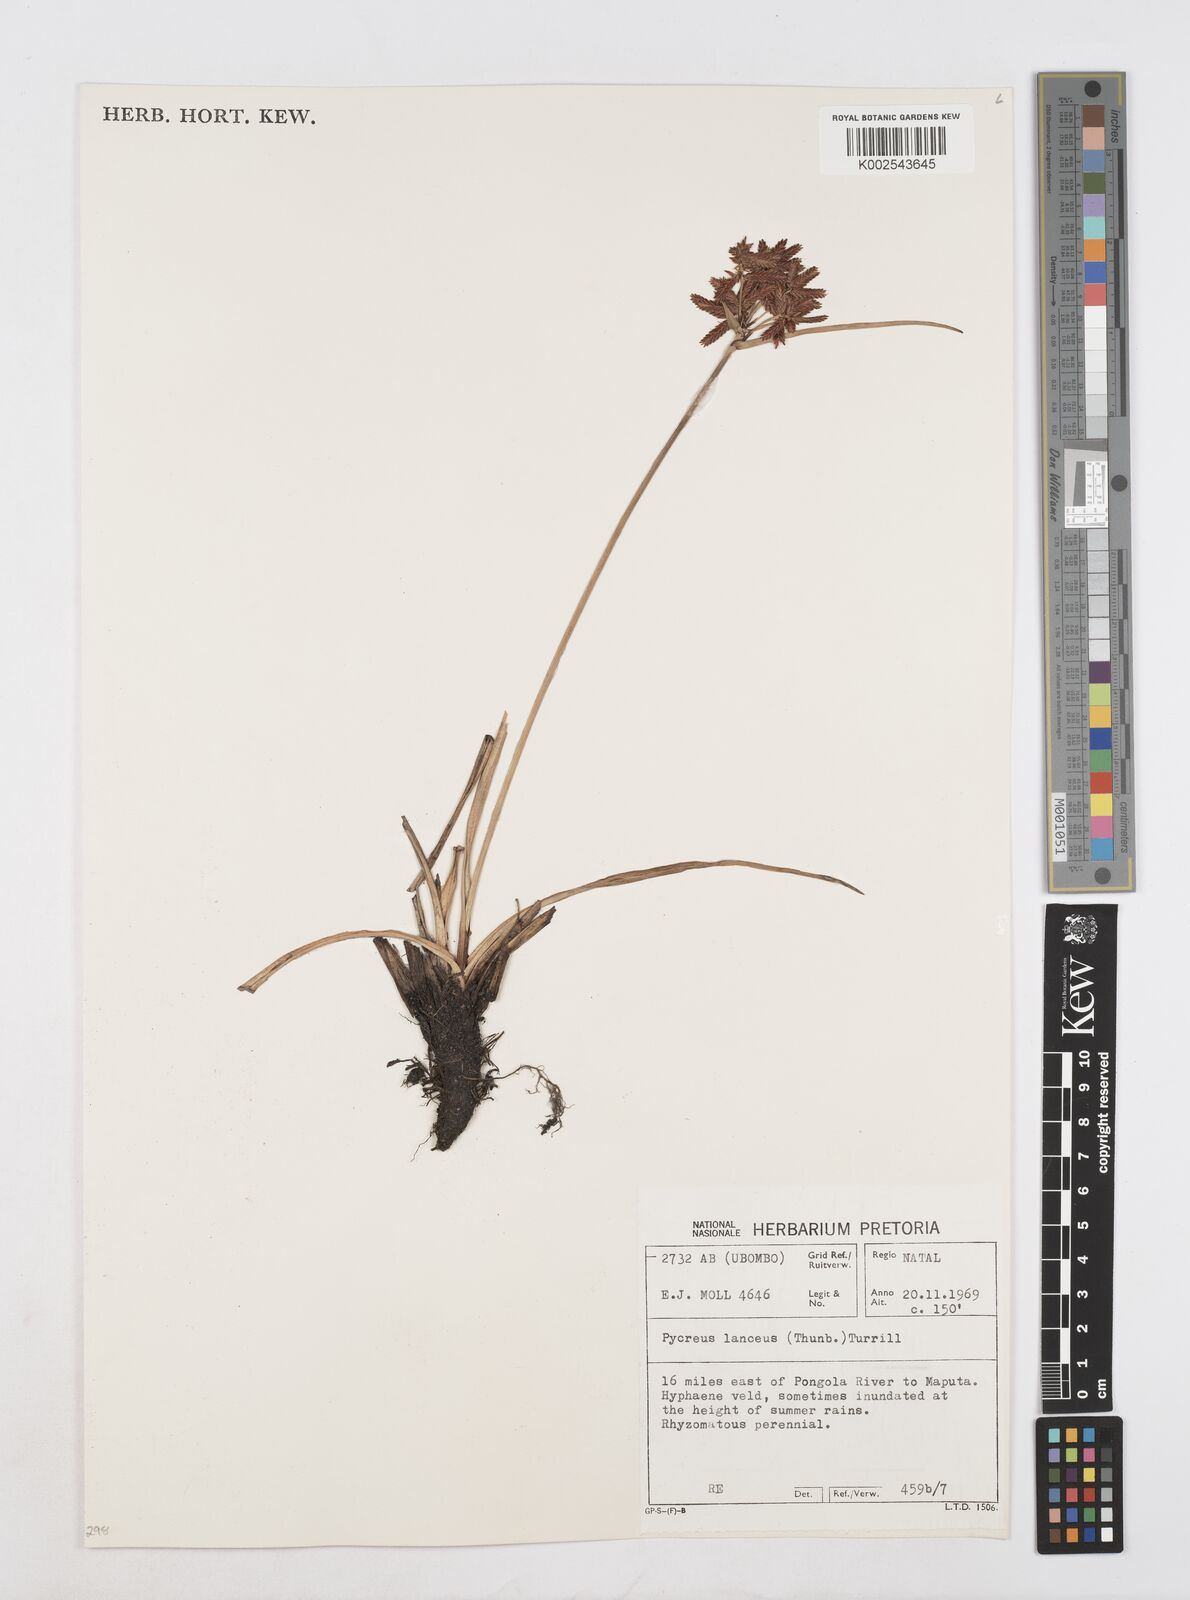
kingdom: Plantae
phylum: Tracheophyta
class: Liliopsida
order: Poales
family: Cyperaceae
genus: Cyperus
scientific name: Cyperus nitidus
